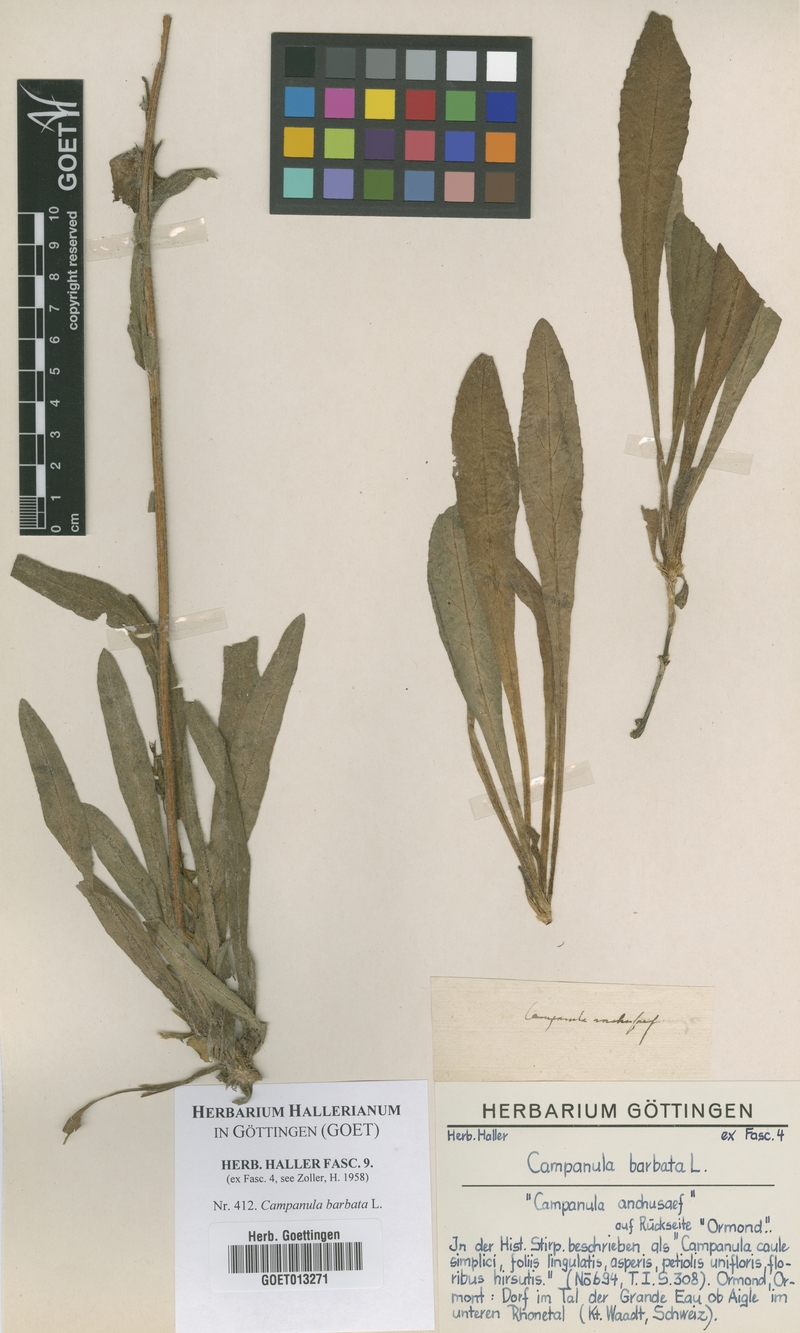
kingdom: Plantae
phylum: Tracheophyta
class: Magnoliopsida
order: Asterales
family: Campanulaceae
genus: Campanula
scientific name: Campanula barbata
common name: Bearded bellflower
